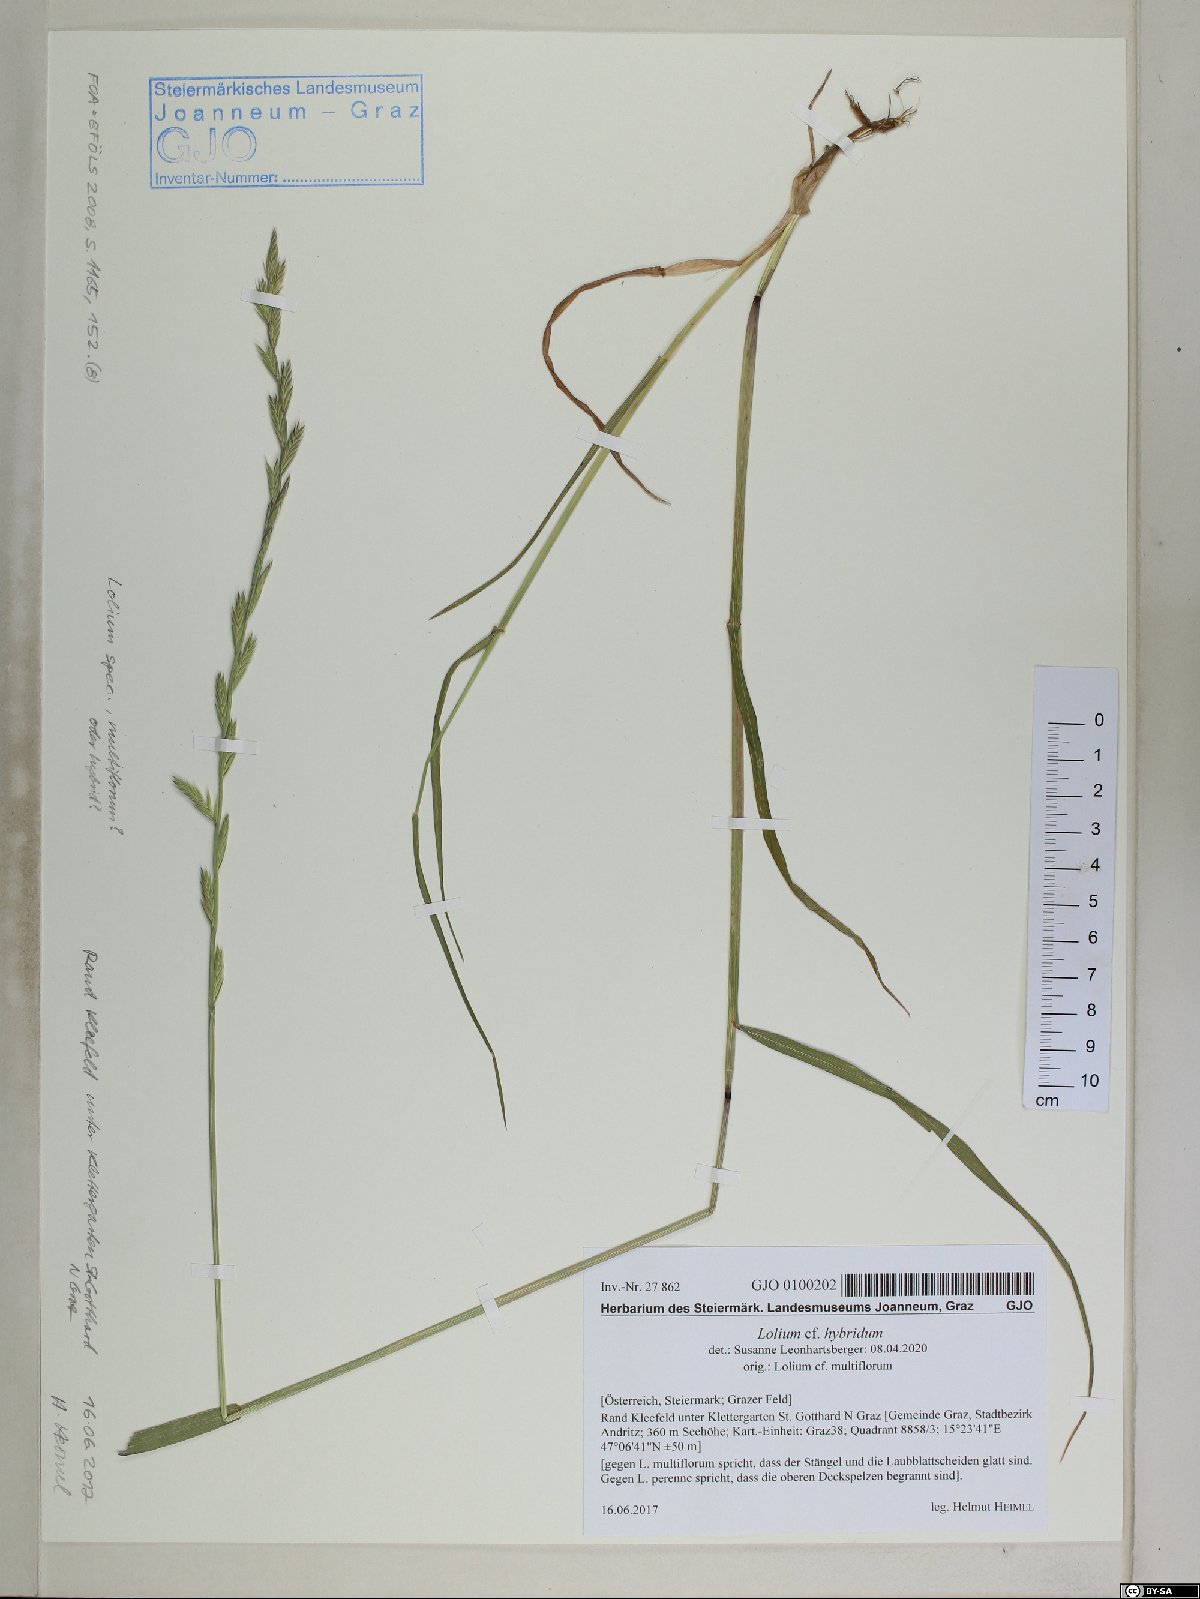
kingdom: Plantae
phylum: Tracheophyta
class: Liliopsida
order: Poales
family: Poaceae
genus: Lolium
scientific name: Lolium boucheanum
